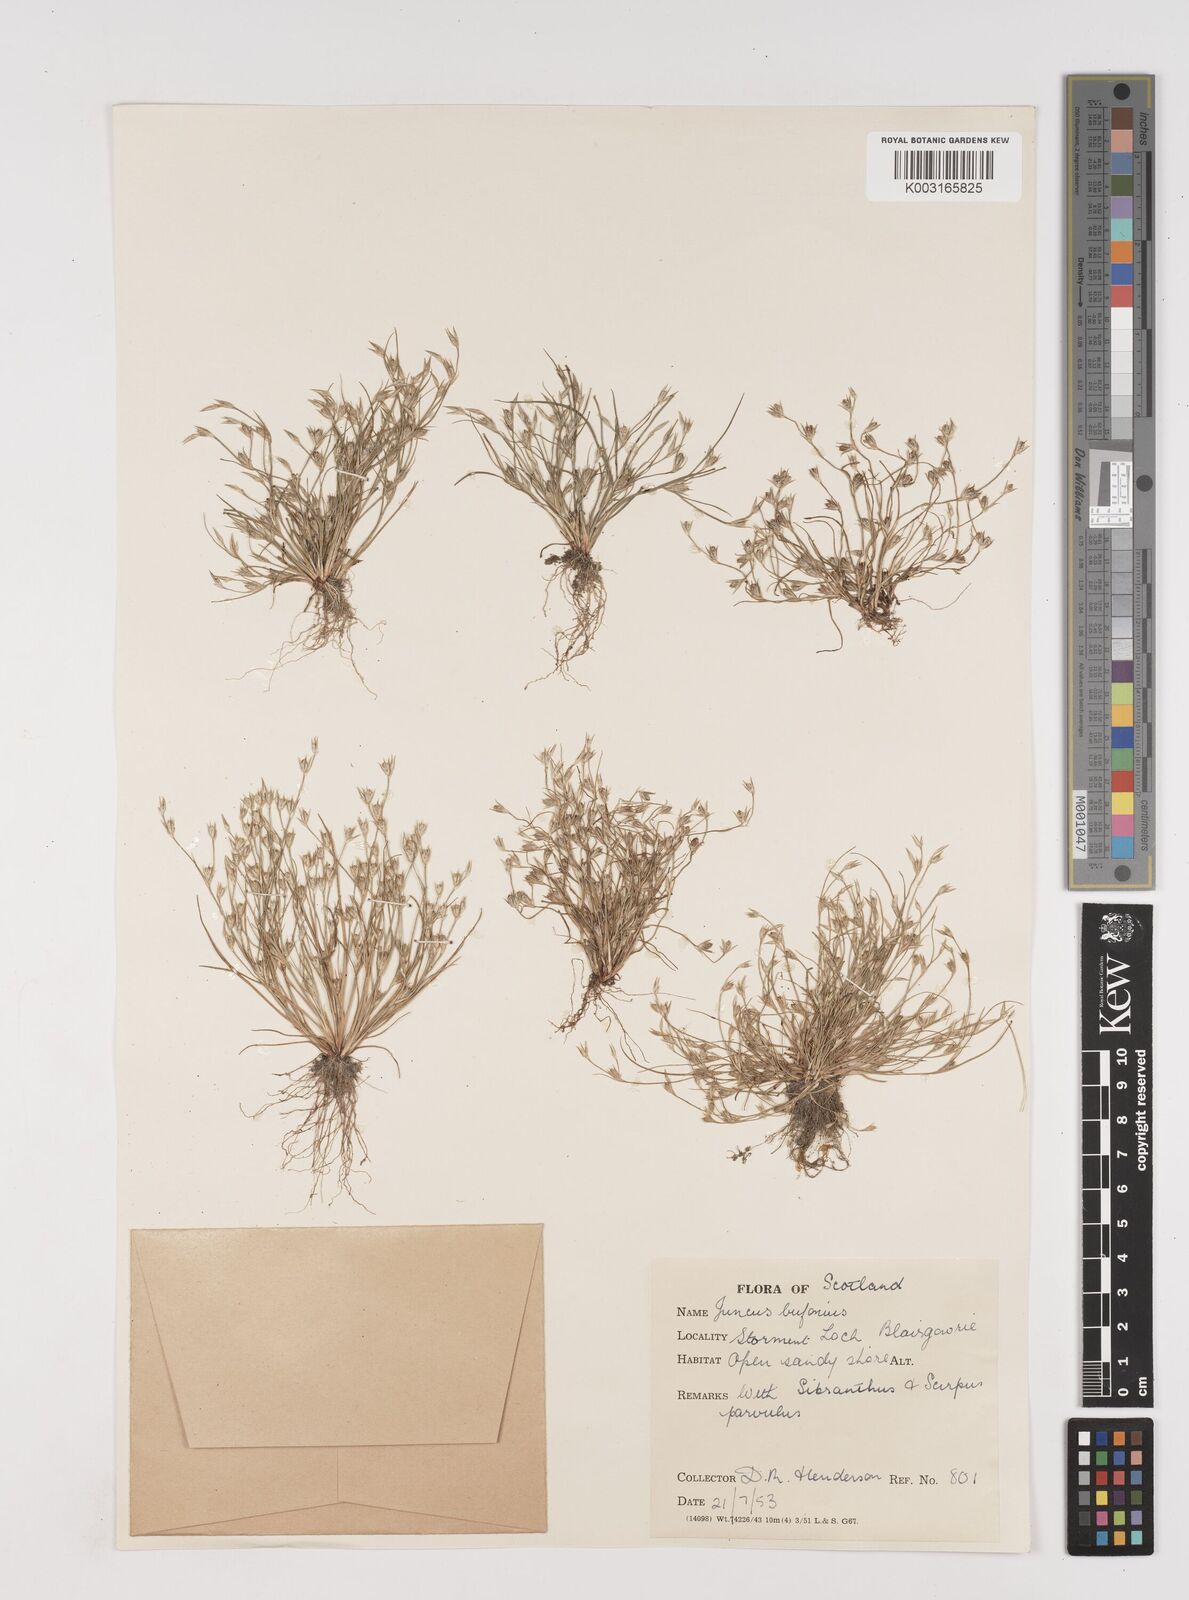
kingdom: Plantae
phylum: Tracheophyta
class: Liliopsida
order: Poales
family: Juncaceae
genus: Juncus
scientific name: Juncus bufonius
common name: Toad rush
